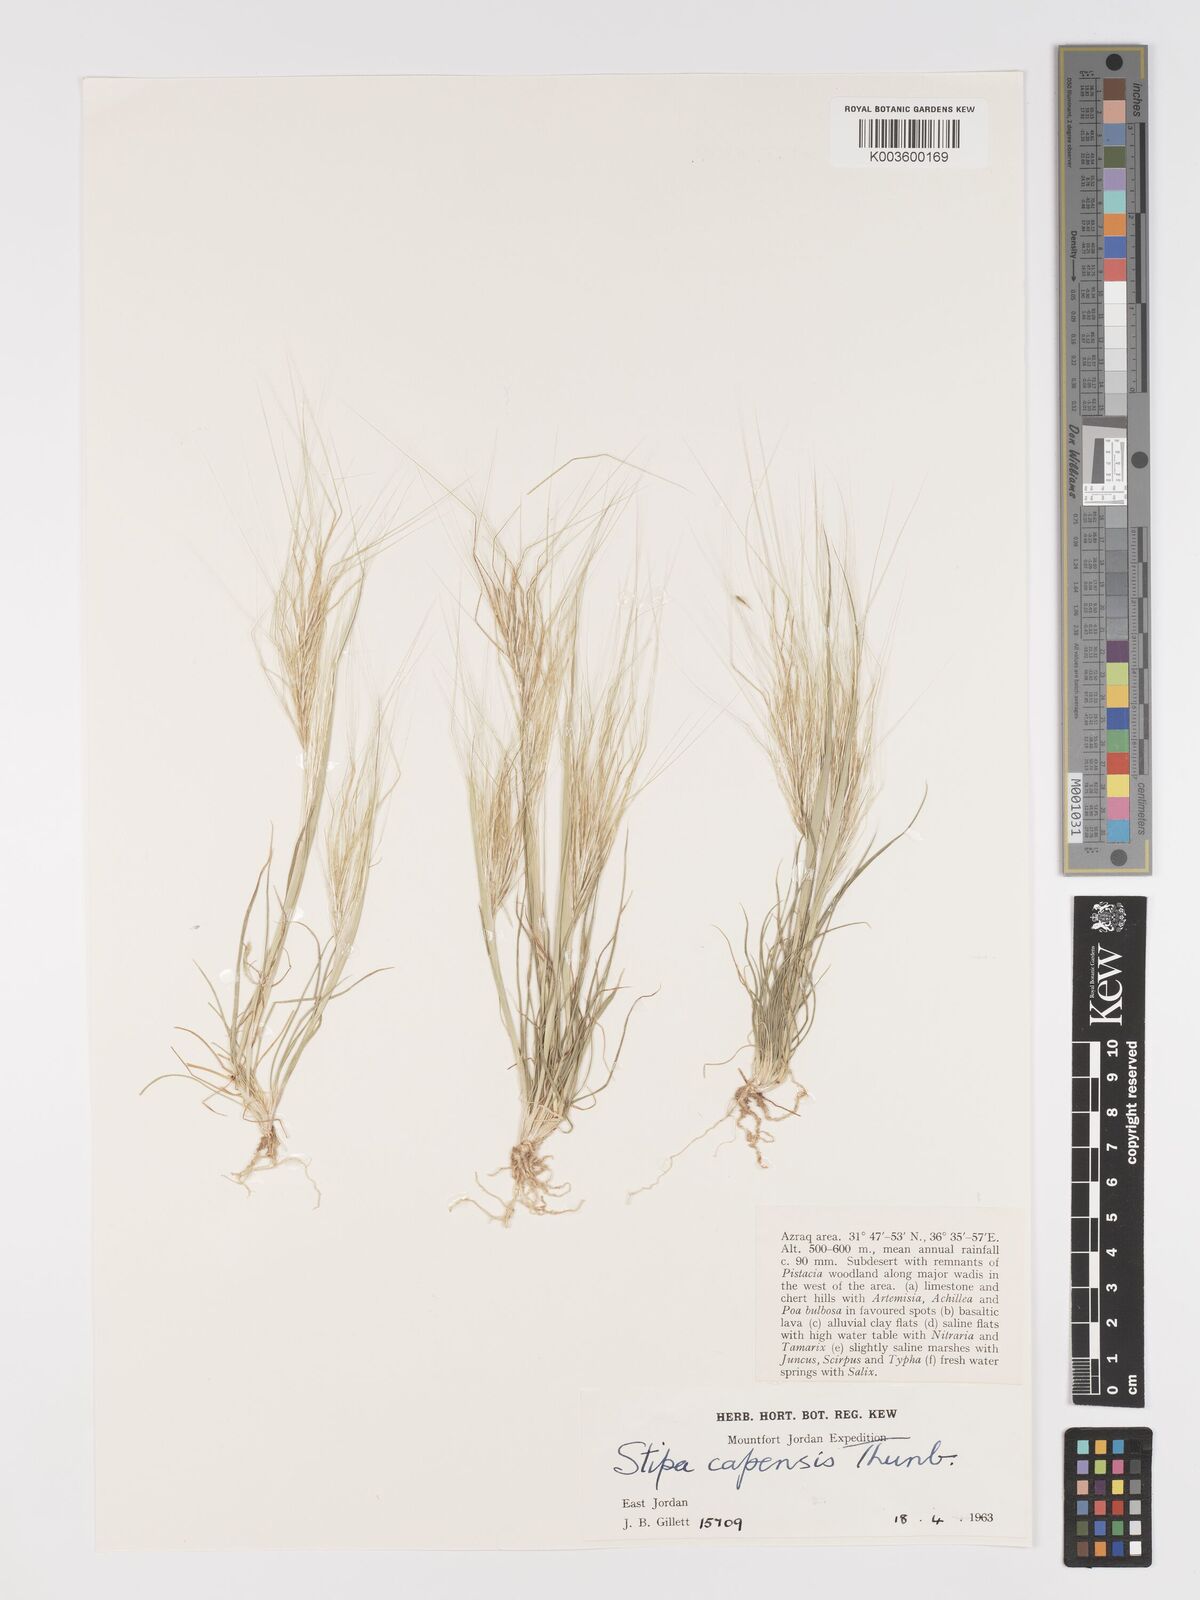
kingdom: Plantae
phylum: Tracheophyta
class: Liliopsida
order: Poales
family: Poaceae
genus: Stipellula
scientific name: Stipellula capensis
